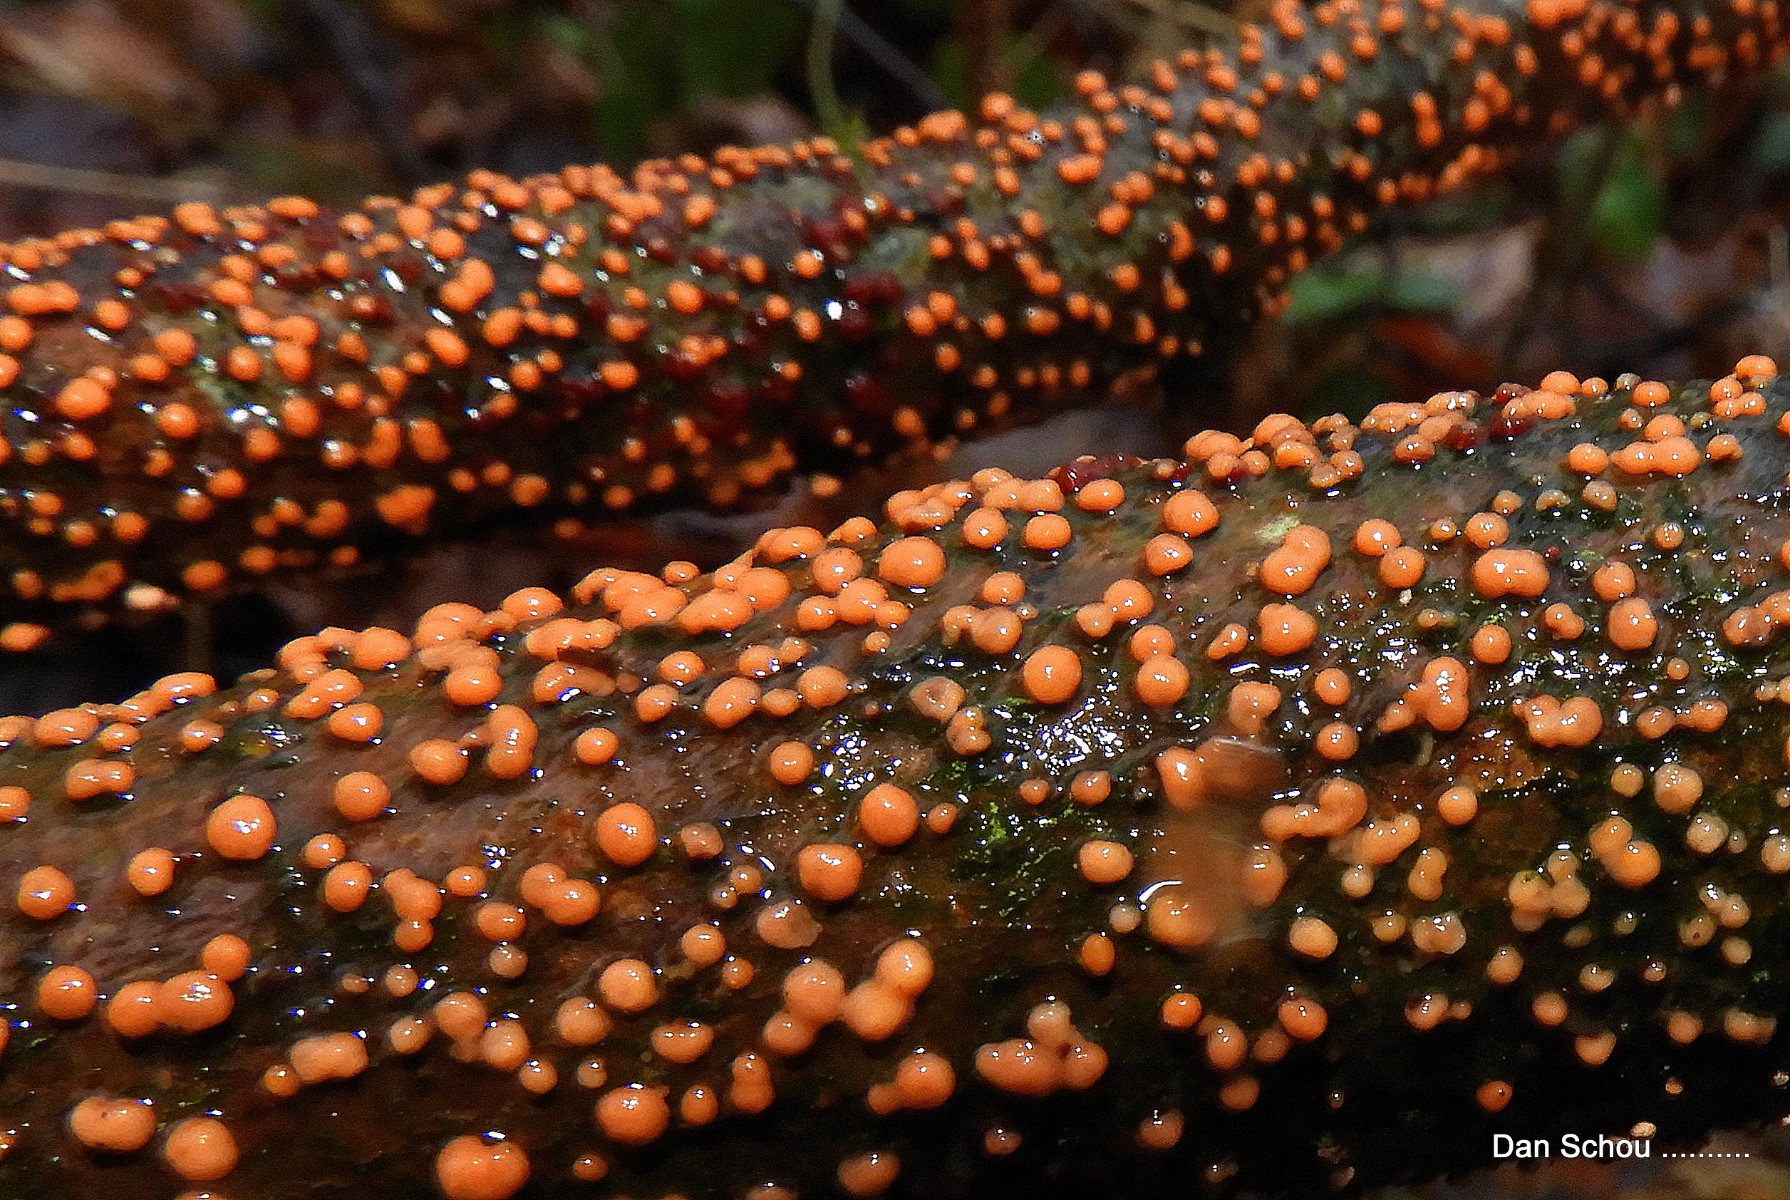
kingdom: Fungi
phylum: Ascomycota
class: Sordariomycetes
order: Hypocreales
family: Nectriaceae
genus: Nectria
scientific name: Nectria cinnabarina
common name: almindelig cinnobersvamp
